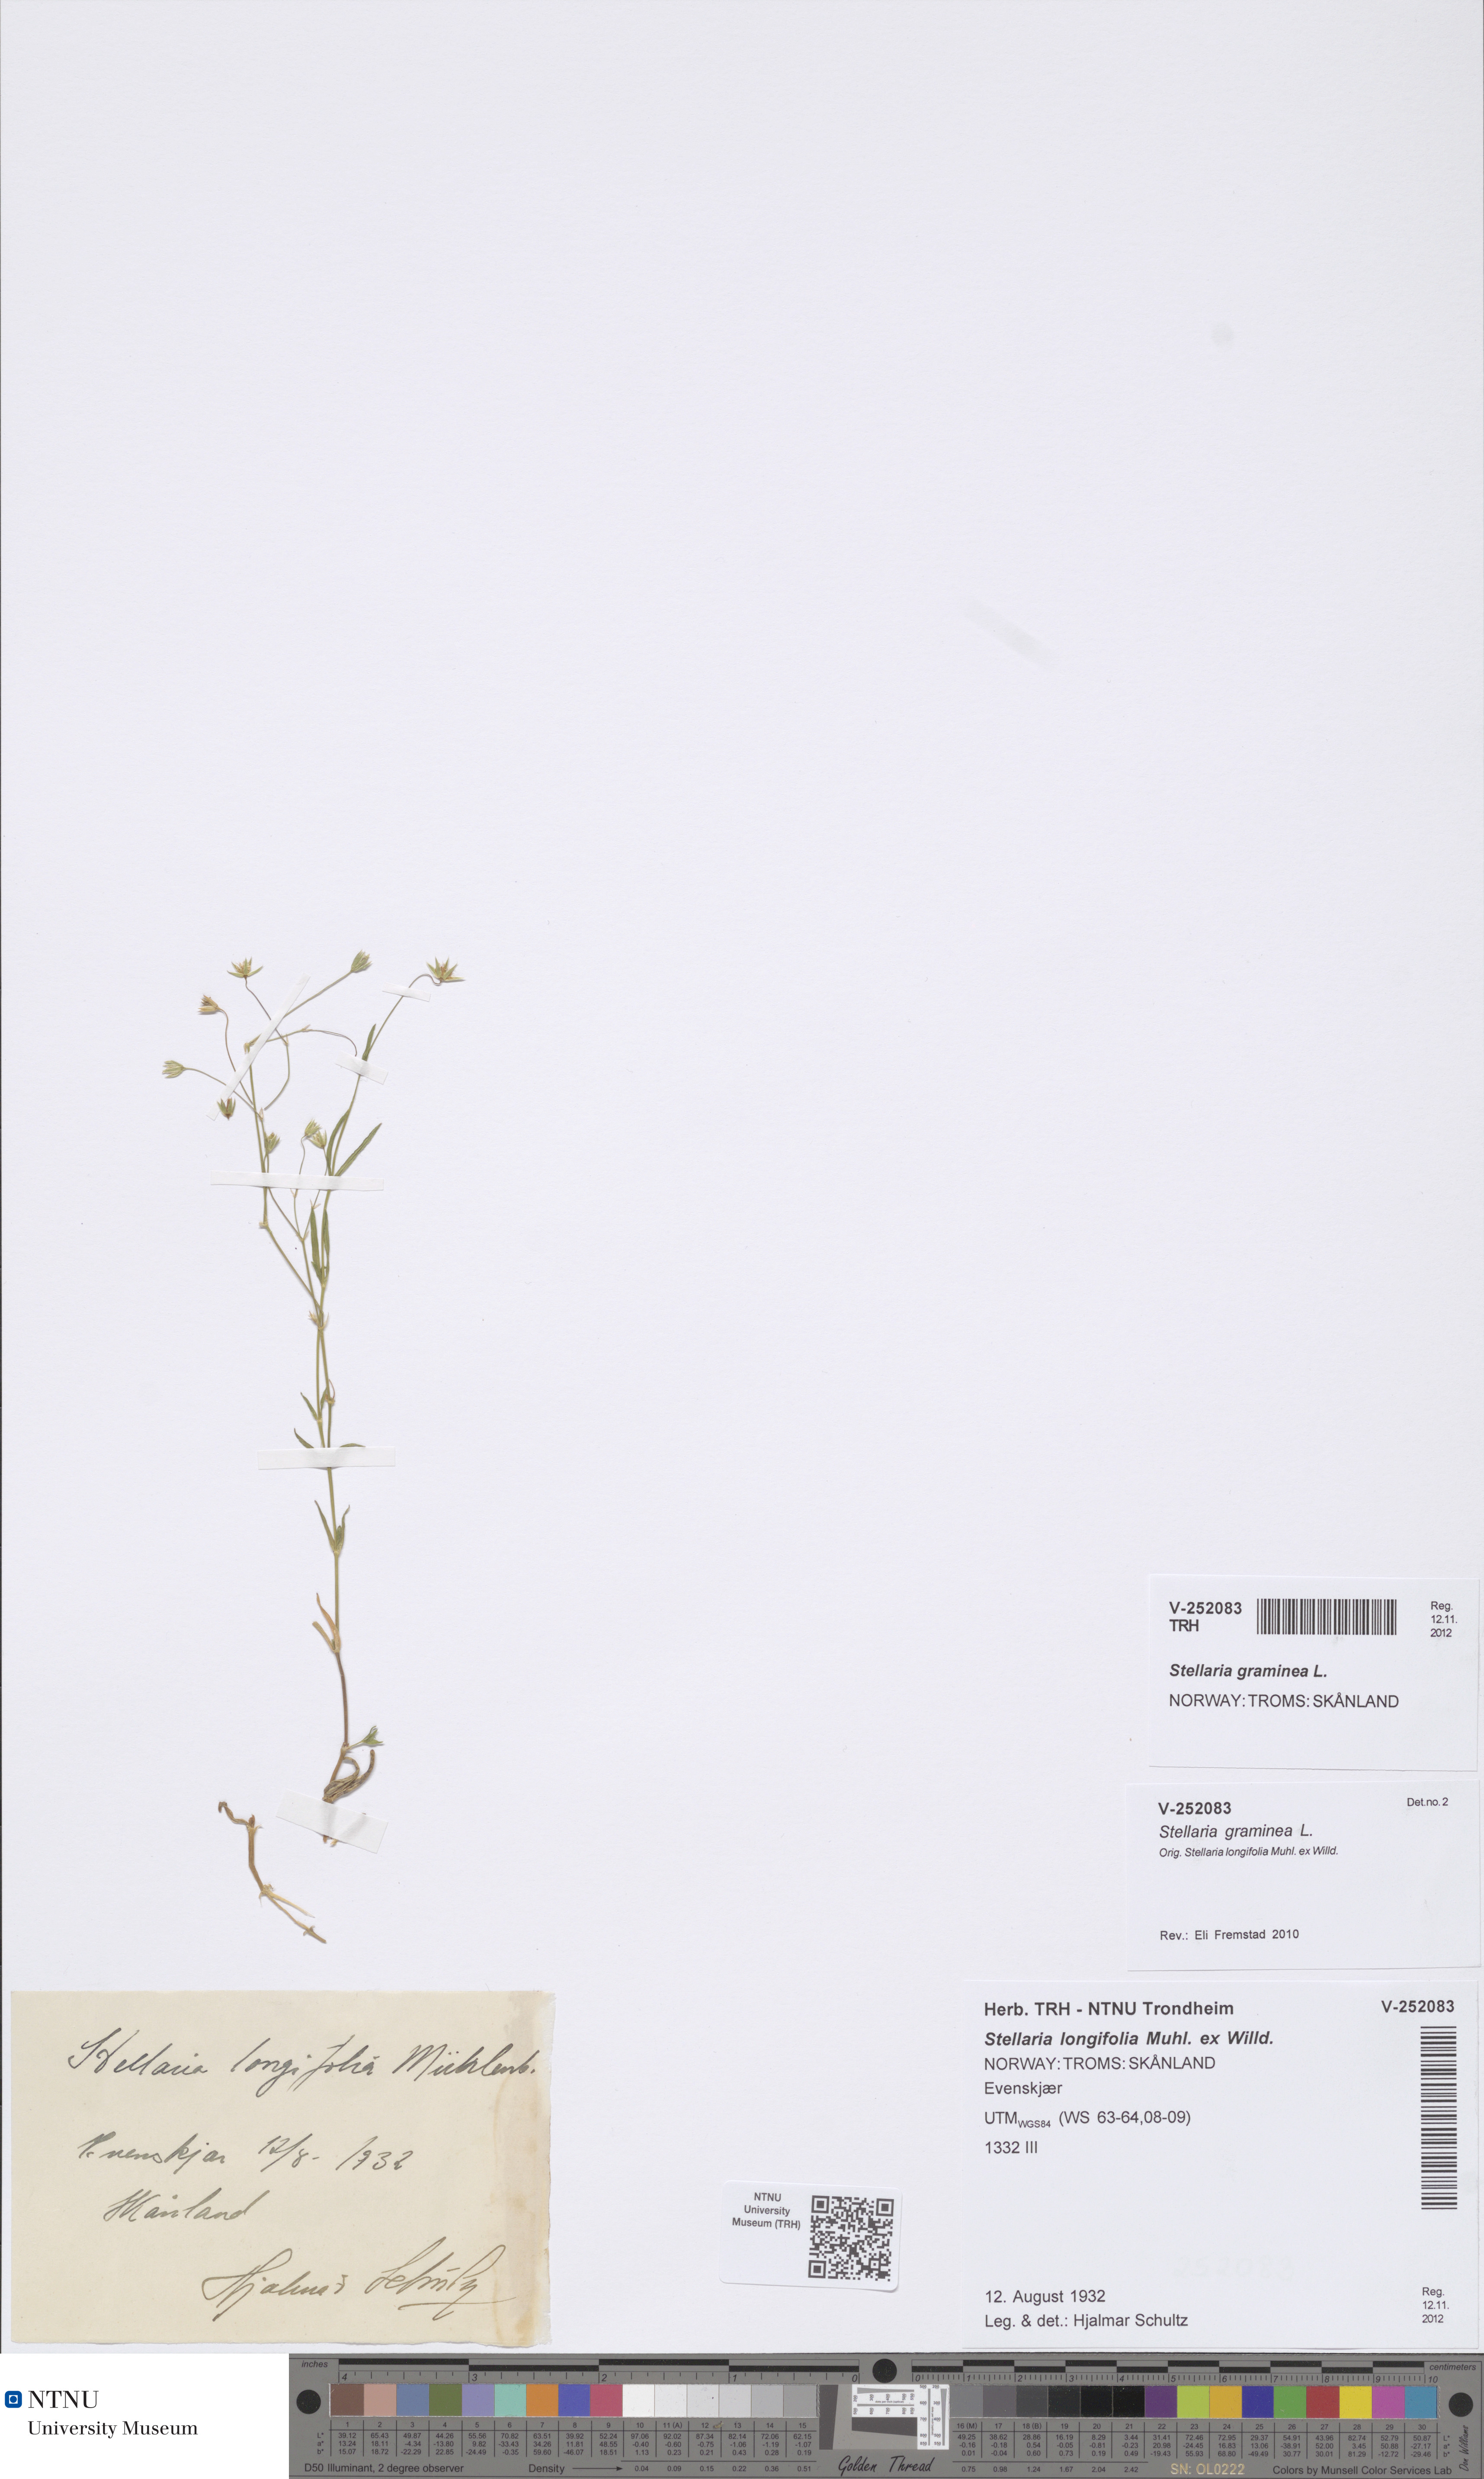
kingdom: Plantae
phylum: Tracheophyta
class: Magnoliopsida
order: Caryophyllales
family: Caryophyllaceae
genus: Stellaria
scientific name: Stellaria graminea
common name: Grass-like starwort
